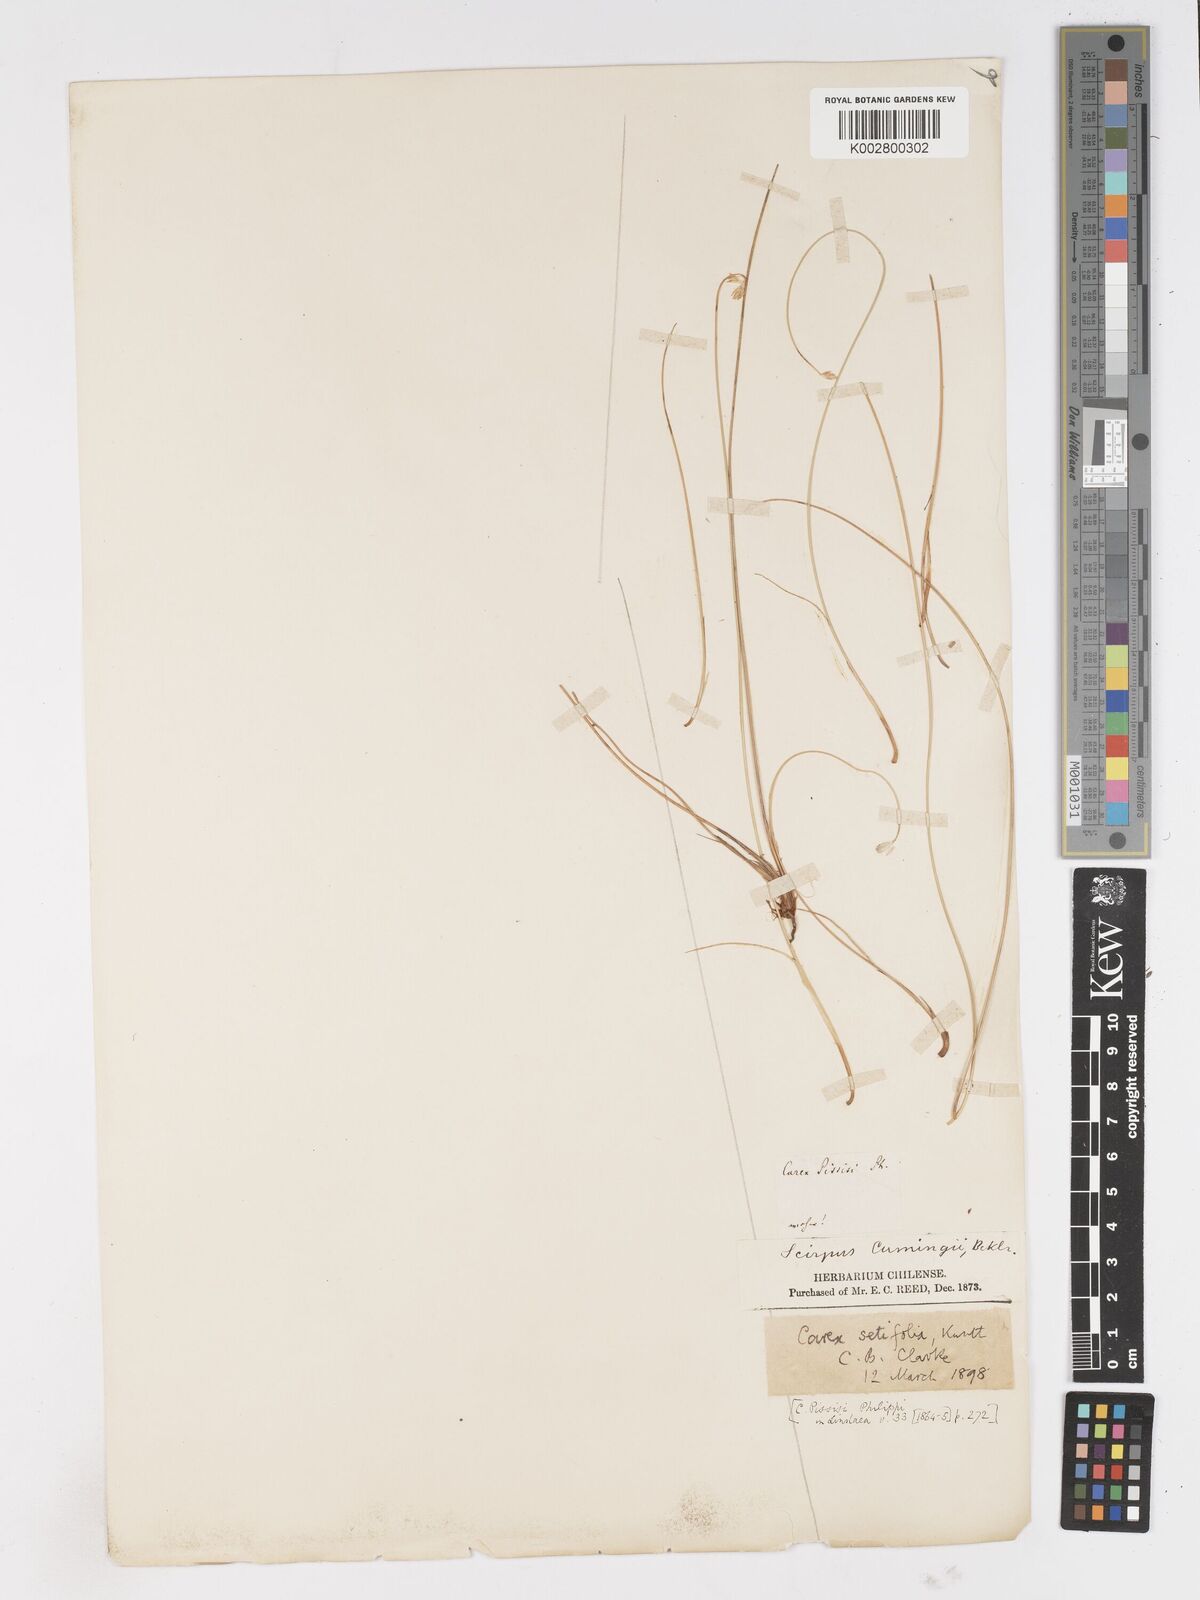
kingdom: Plantae
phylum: Tracheophyta
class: Liliopsida
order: Poales
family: Cyperaceae
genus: Carex
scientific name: Carex setifolia
